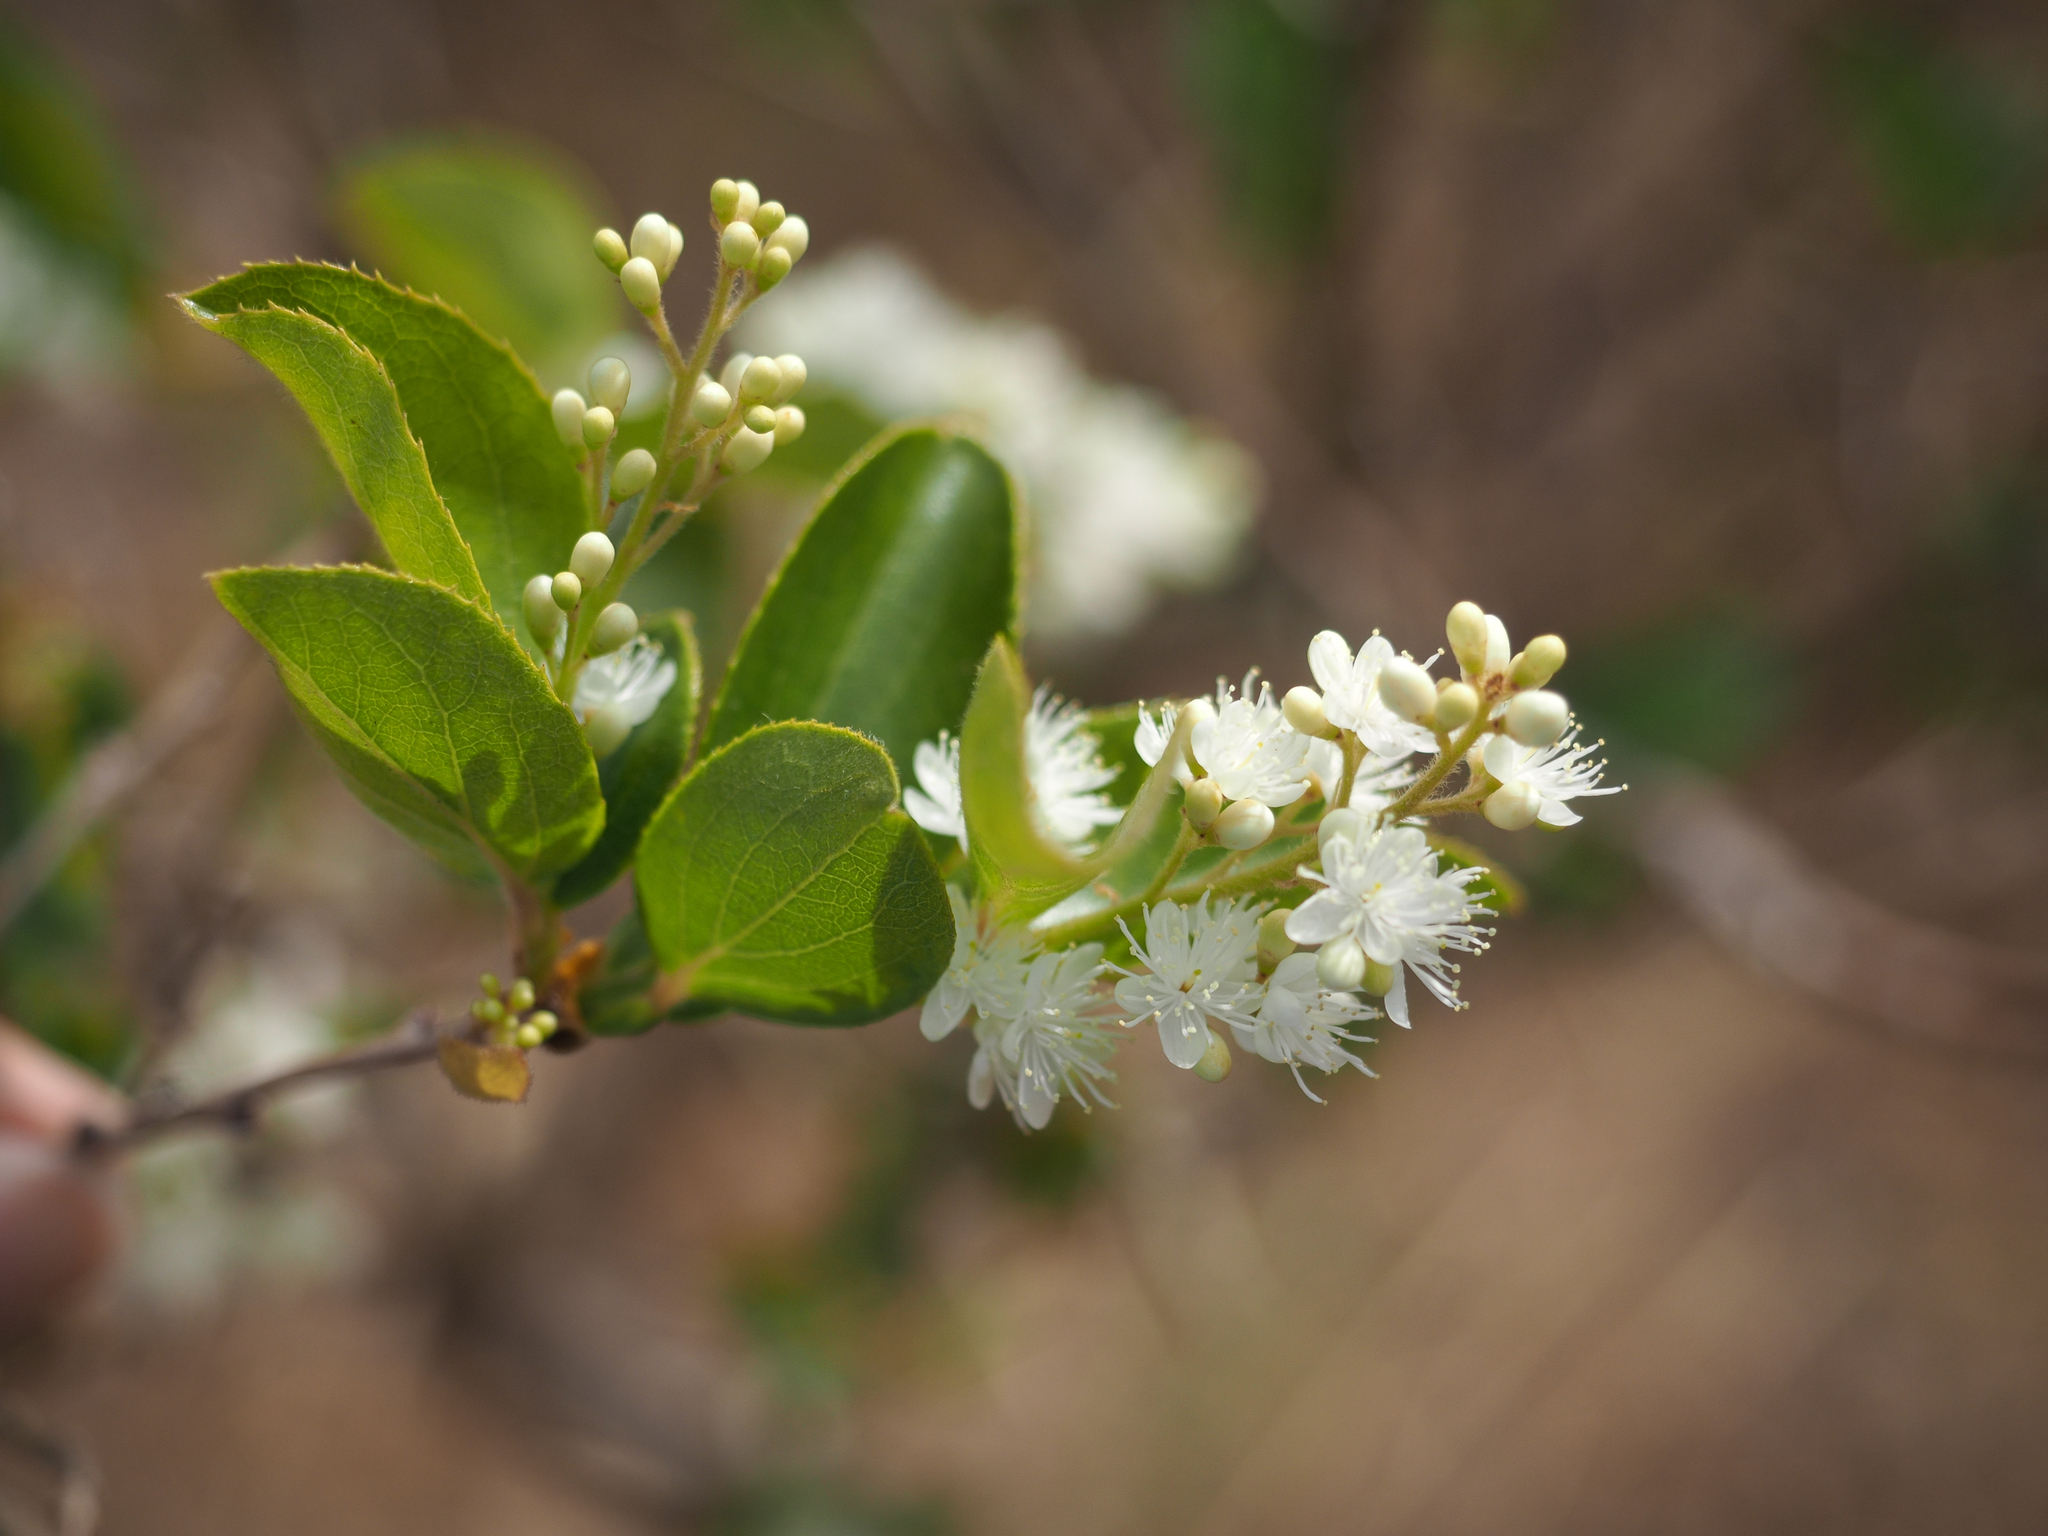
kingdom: Plantae
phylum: Tracheophyta
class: Magnoliopsida
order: Ericales
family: Symplocaceae
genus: Symplocos
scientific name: Symplocos paniculata
